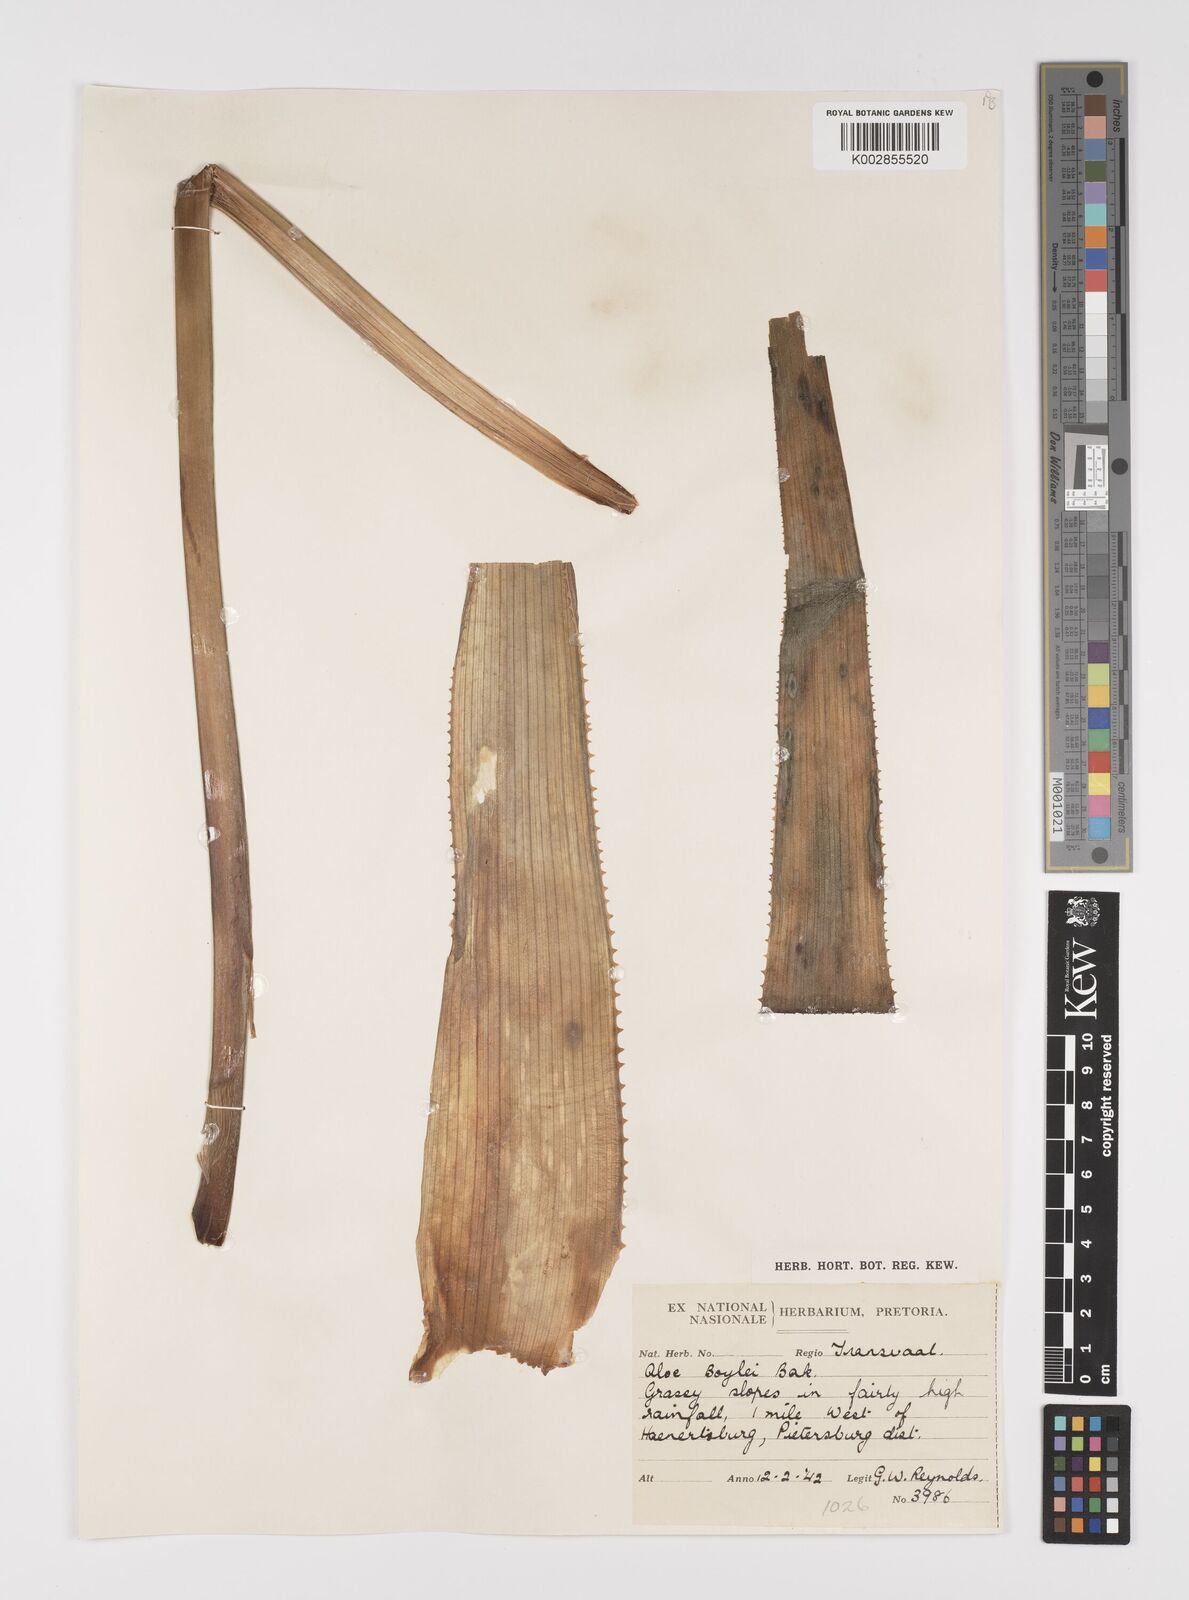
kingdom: Plantae
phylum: Tracheophyta
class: Liliopsida
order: Asparagales
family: Asphodelaceae
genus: Aloe
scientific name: Aloe boylei
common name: Broad-leaved grass aloe
